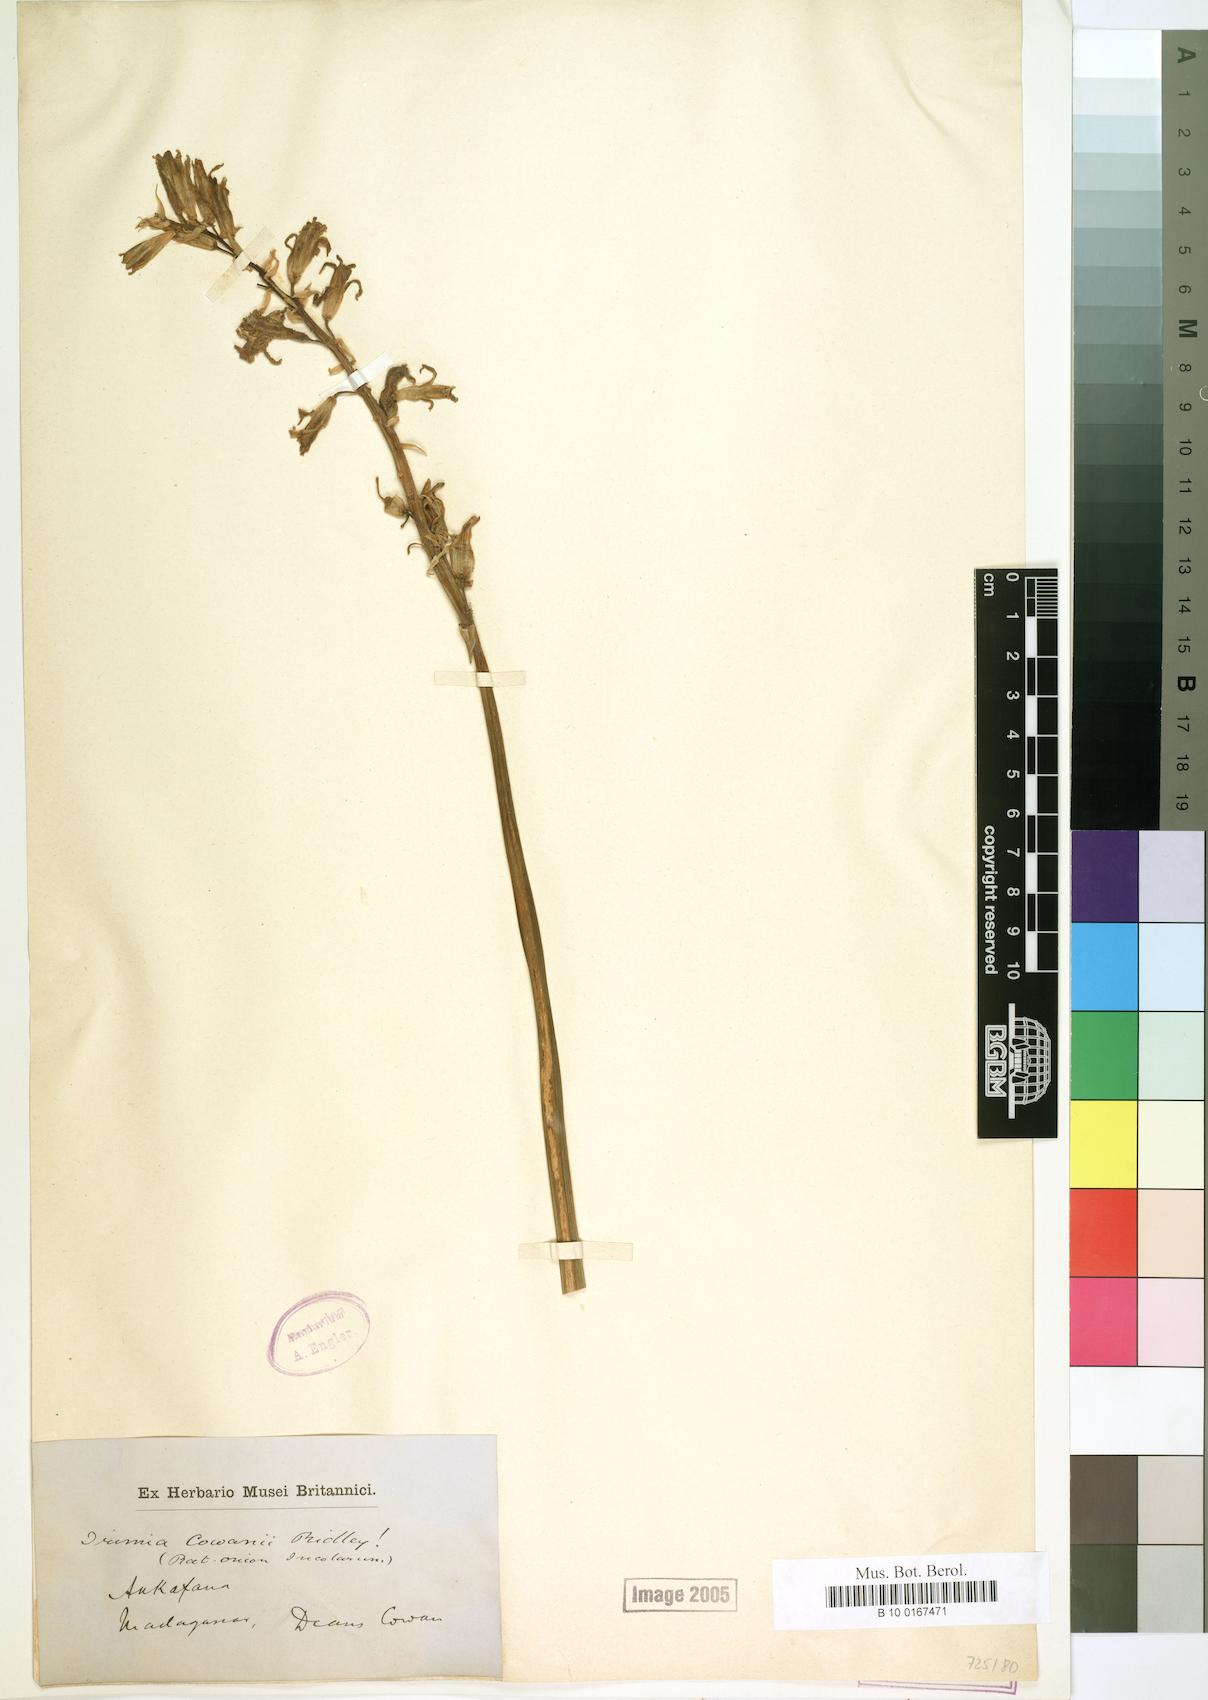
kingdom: Plantae
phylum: Tracheophyta
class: Liliopsida
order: Asparagales
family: Asparagaceae
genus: Dipcadi
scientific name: Dipcadi cowanii
